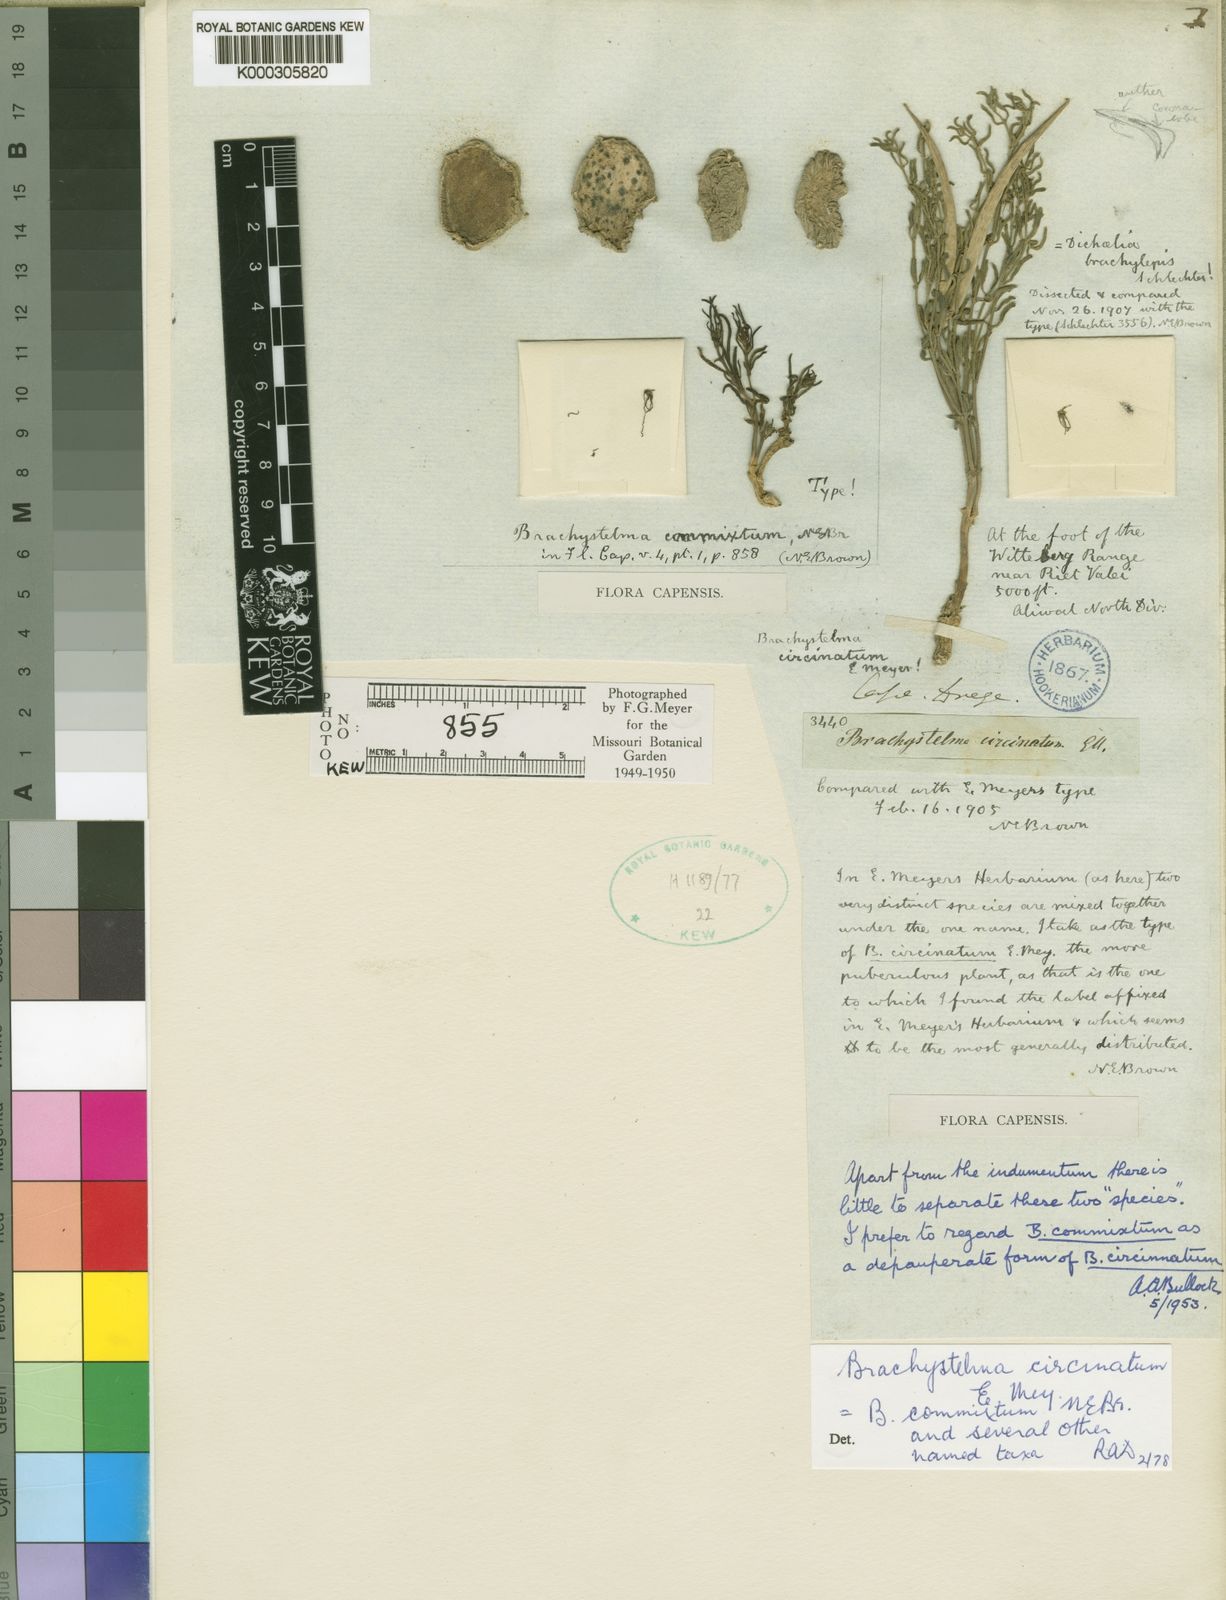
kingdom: Plantae
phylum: Tracheophyta
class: Magnoliopsida
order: Gentianales
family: Apocynaceae
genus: Ceropegia
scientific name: Ceropegia circinata
